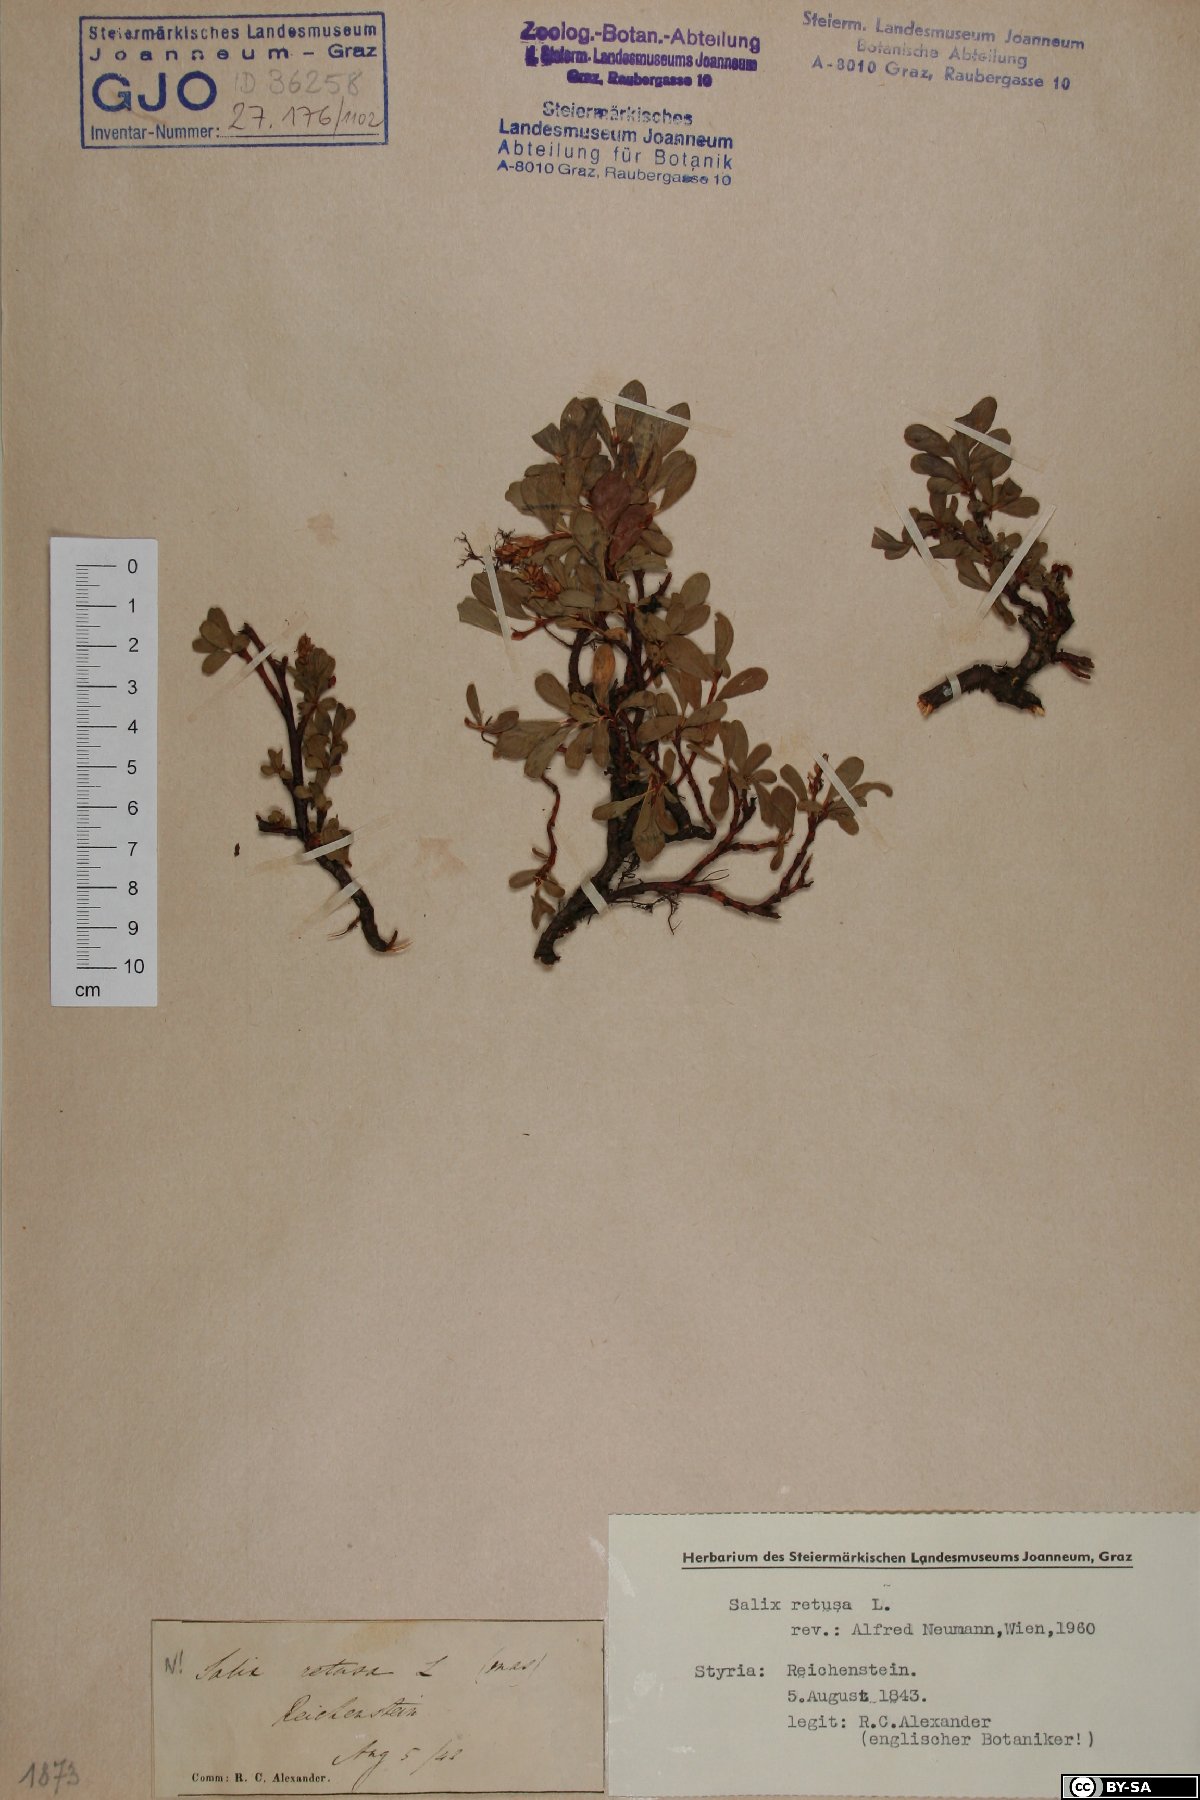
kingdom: Plantae
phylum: Tracheophyta
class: Magnoliopsida
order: Malpighiales
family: Salicaceae
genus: Salix
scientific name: Salix retusa
